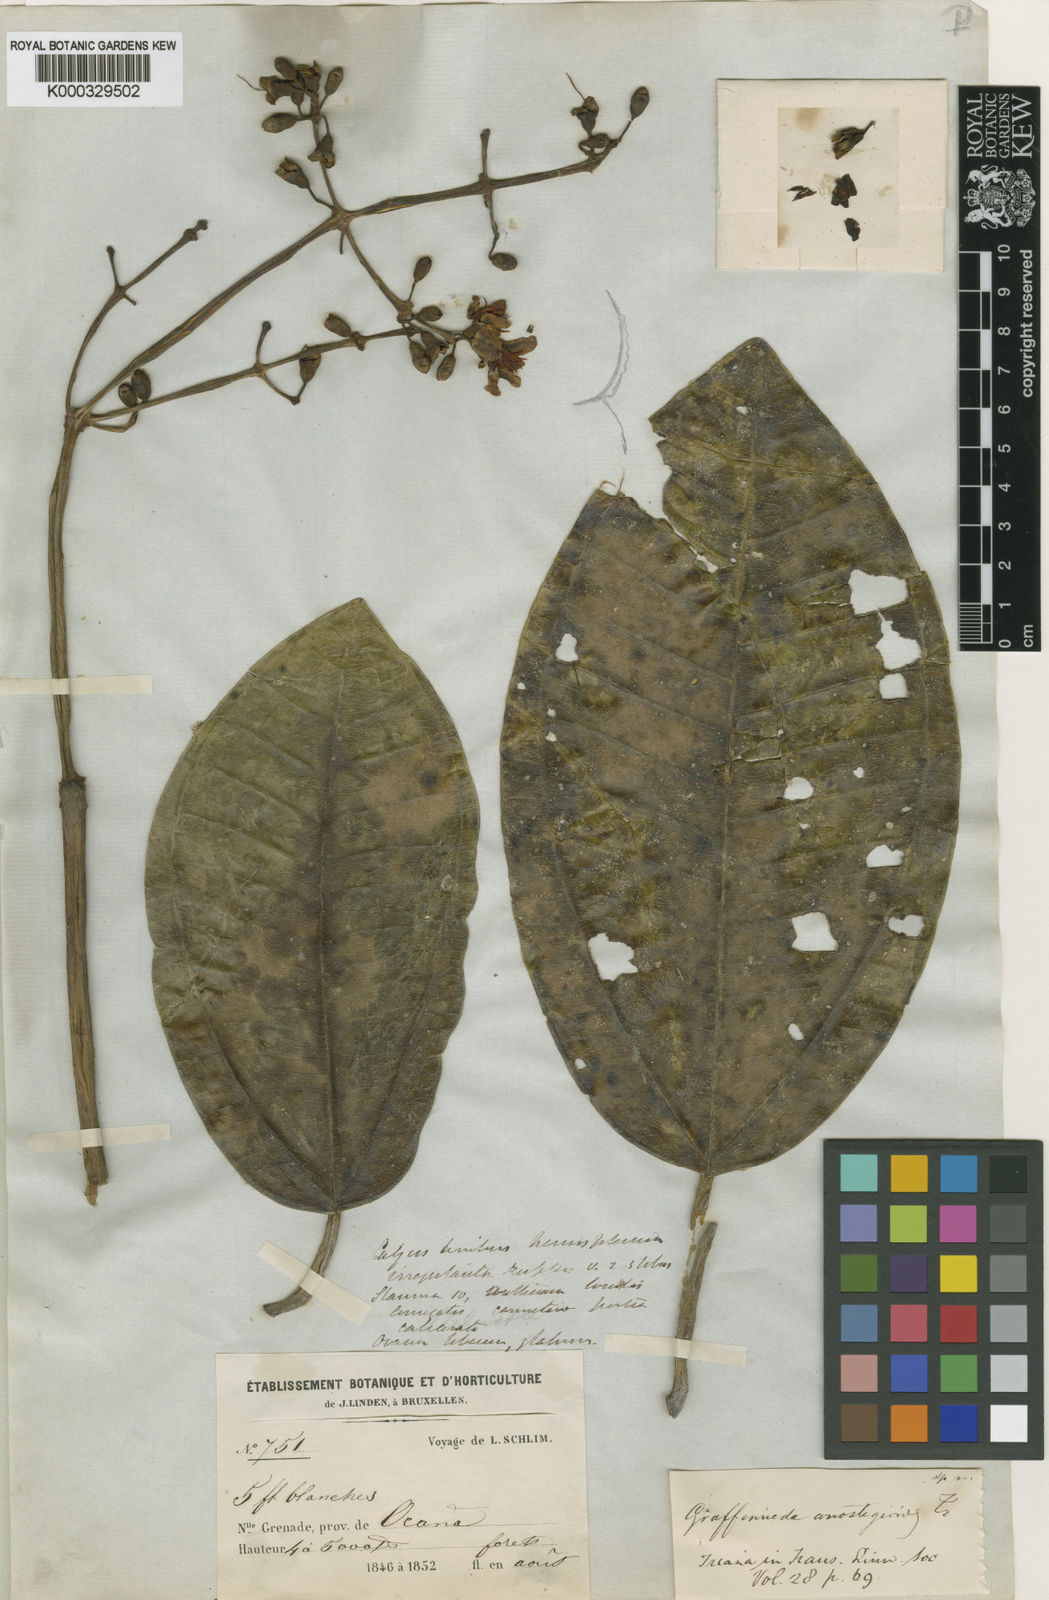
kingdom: Plantae
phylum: Tracheophyta
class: Magnoliopsida
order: Myrtales
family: Melastomataceae
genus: Graffenrieda
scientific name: Graffenrieda
